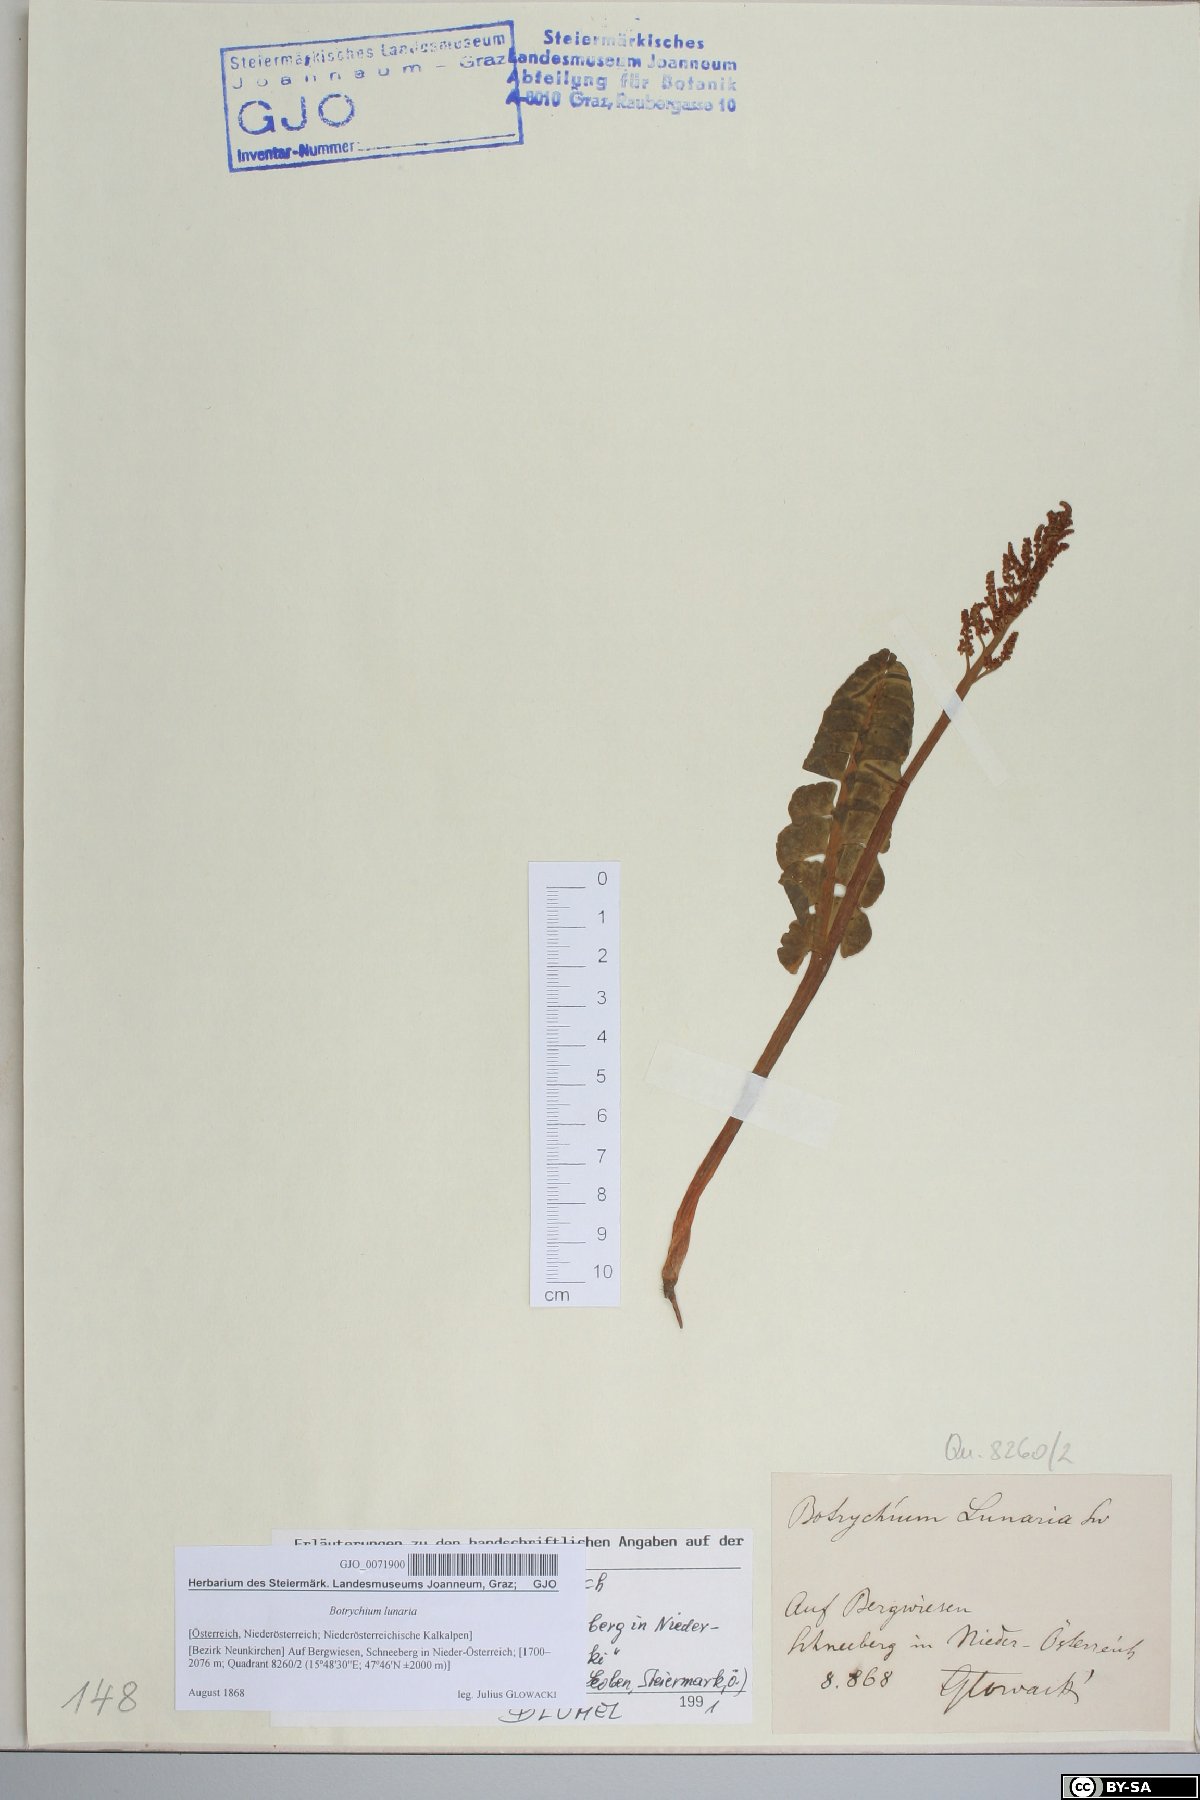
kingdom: Plantae
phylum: Tracheophyta
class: Polypodiopsida
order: Ophioglossales
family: Ophioglossaceae
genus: Botrychium
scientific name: Botrychium lunaria
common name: Moonwort
